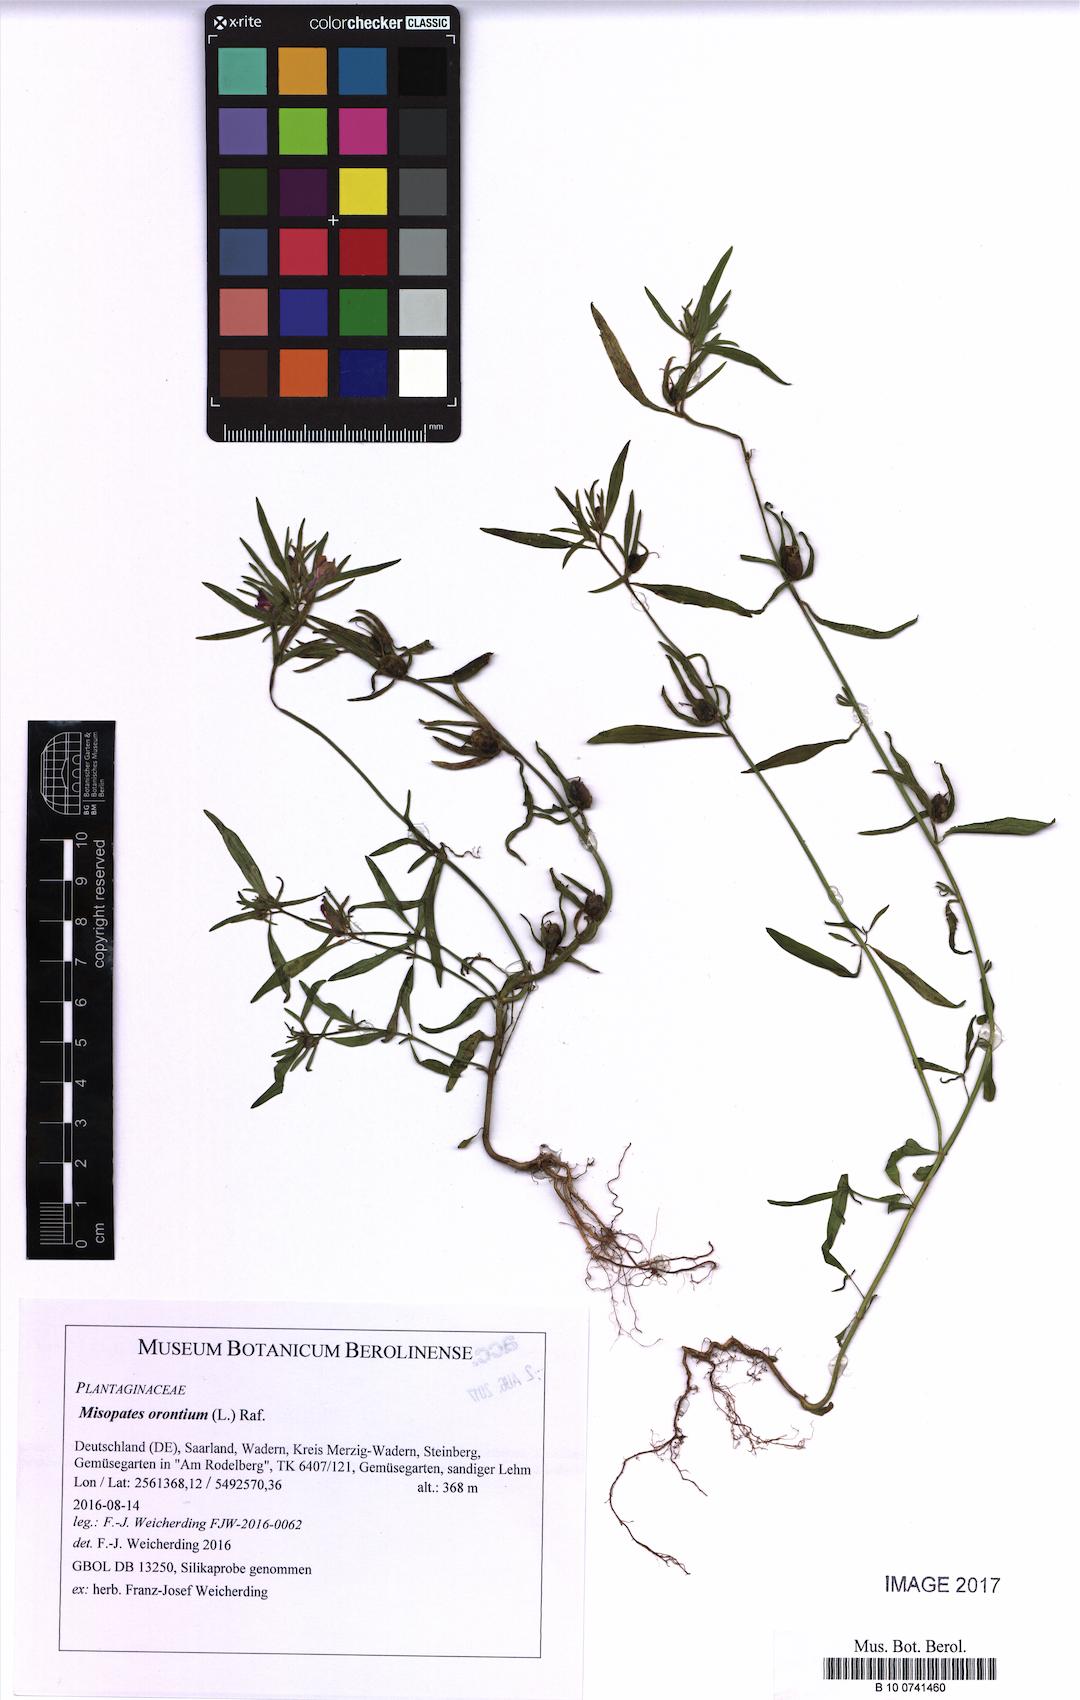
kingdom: Plantae
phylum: Tracheophyta
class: Magnoliopsida
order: Lamiales
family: Plantaginaceae
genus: Misopates
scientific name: Misopates orontium
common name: Weasel's-snout
